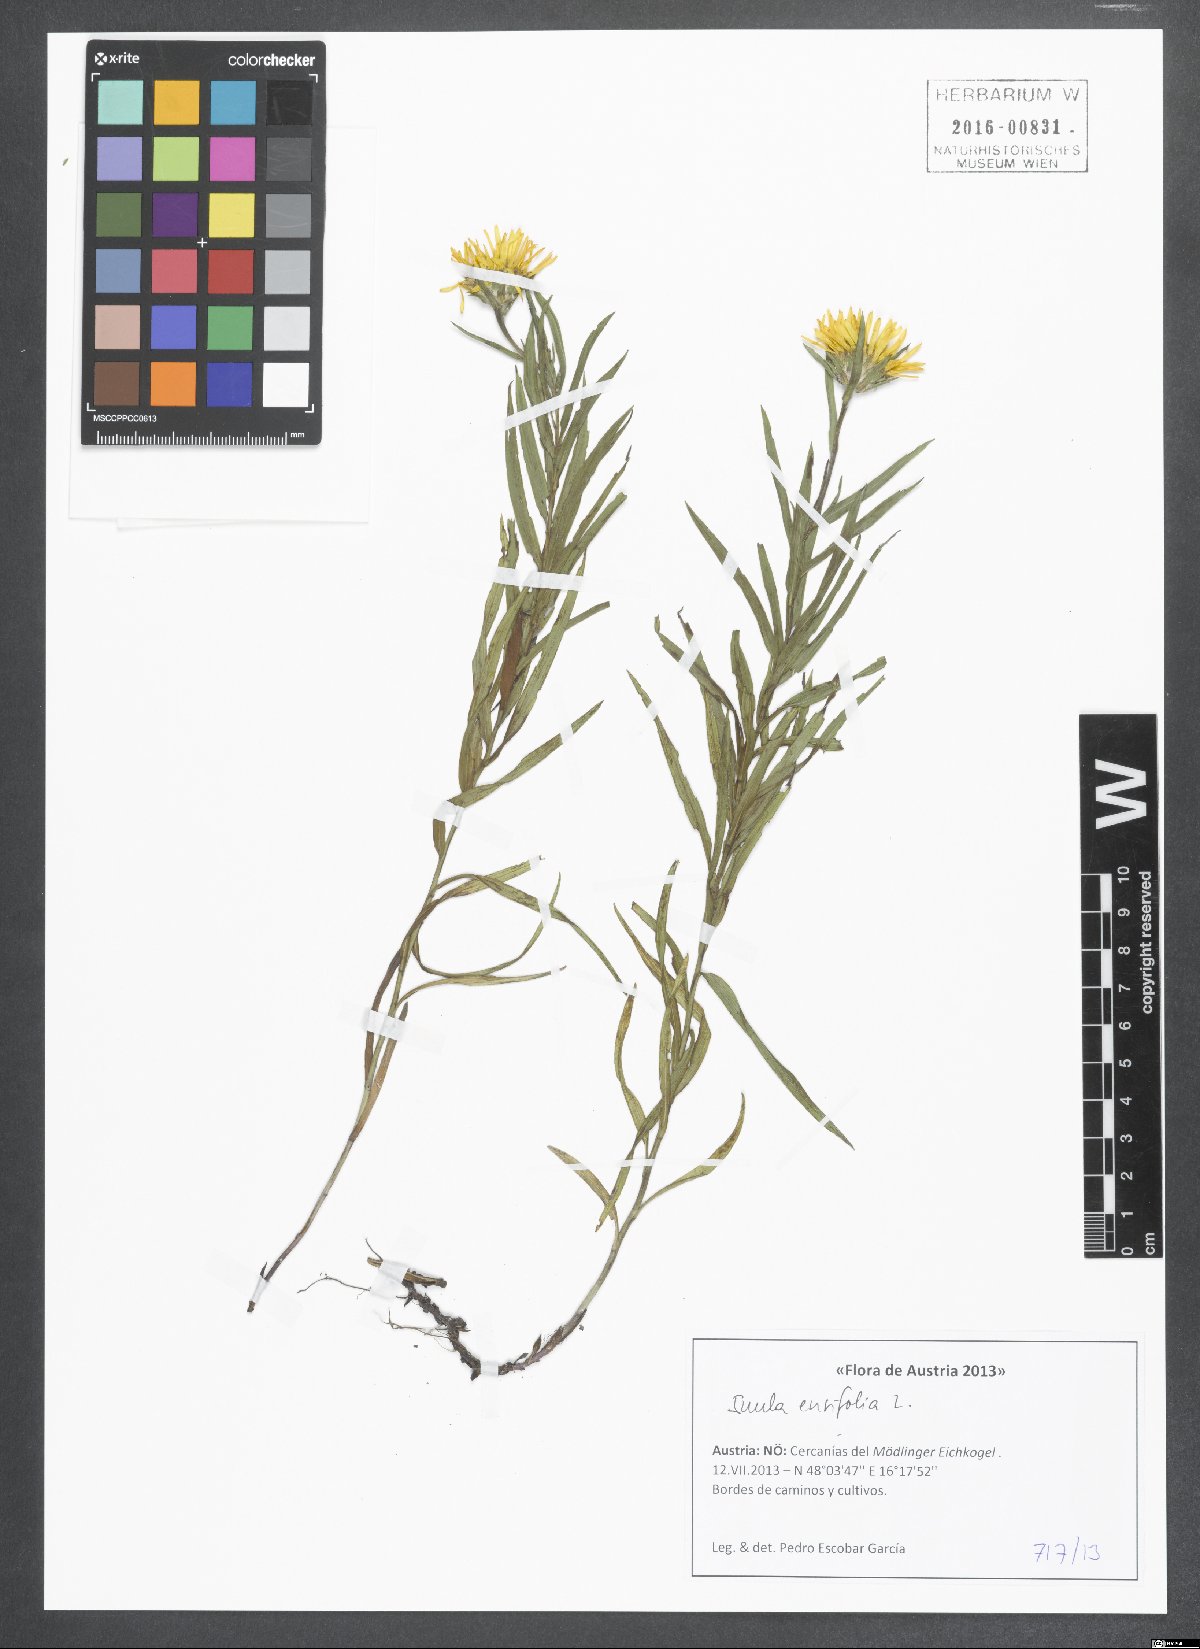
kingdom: Plantae
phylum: Tracheophyta
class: Magnoliopsida
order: Asterales
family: Asteraceae
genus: Pentanema
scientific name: Pentanema ensifolium
